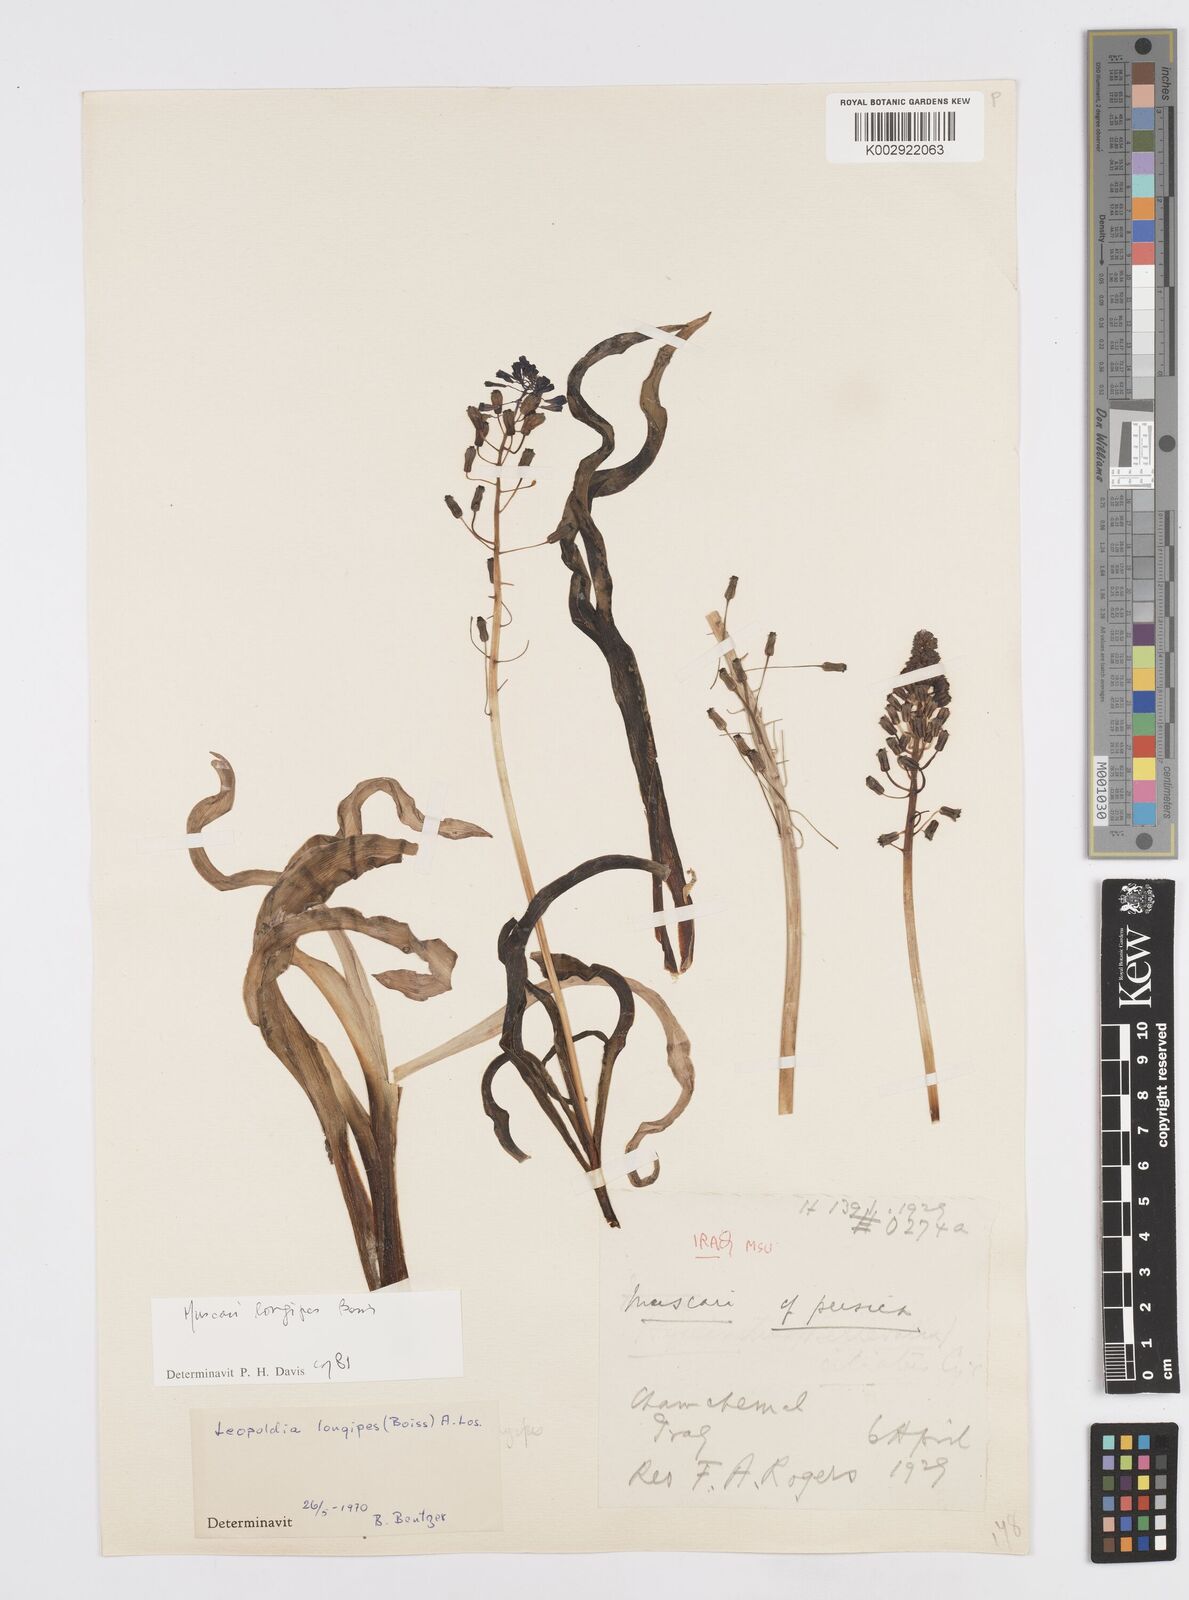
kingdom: Animalia
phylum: Mollusca
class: Cephalopoda
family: Neocomitidae
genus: Leopoldia
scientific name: Leopoldia
